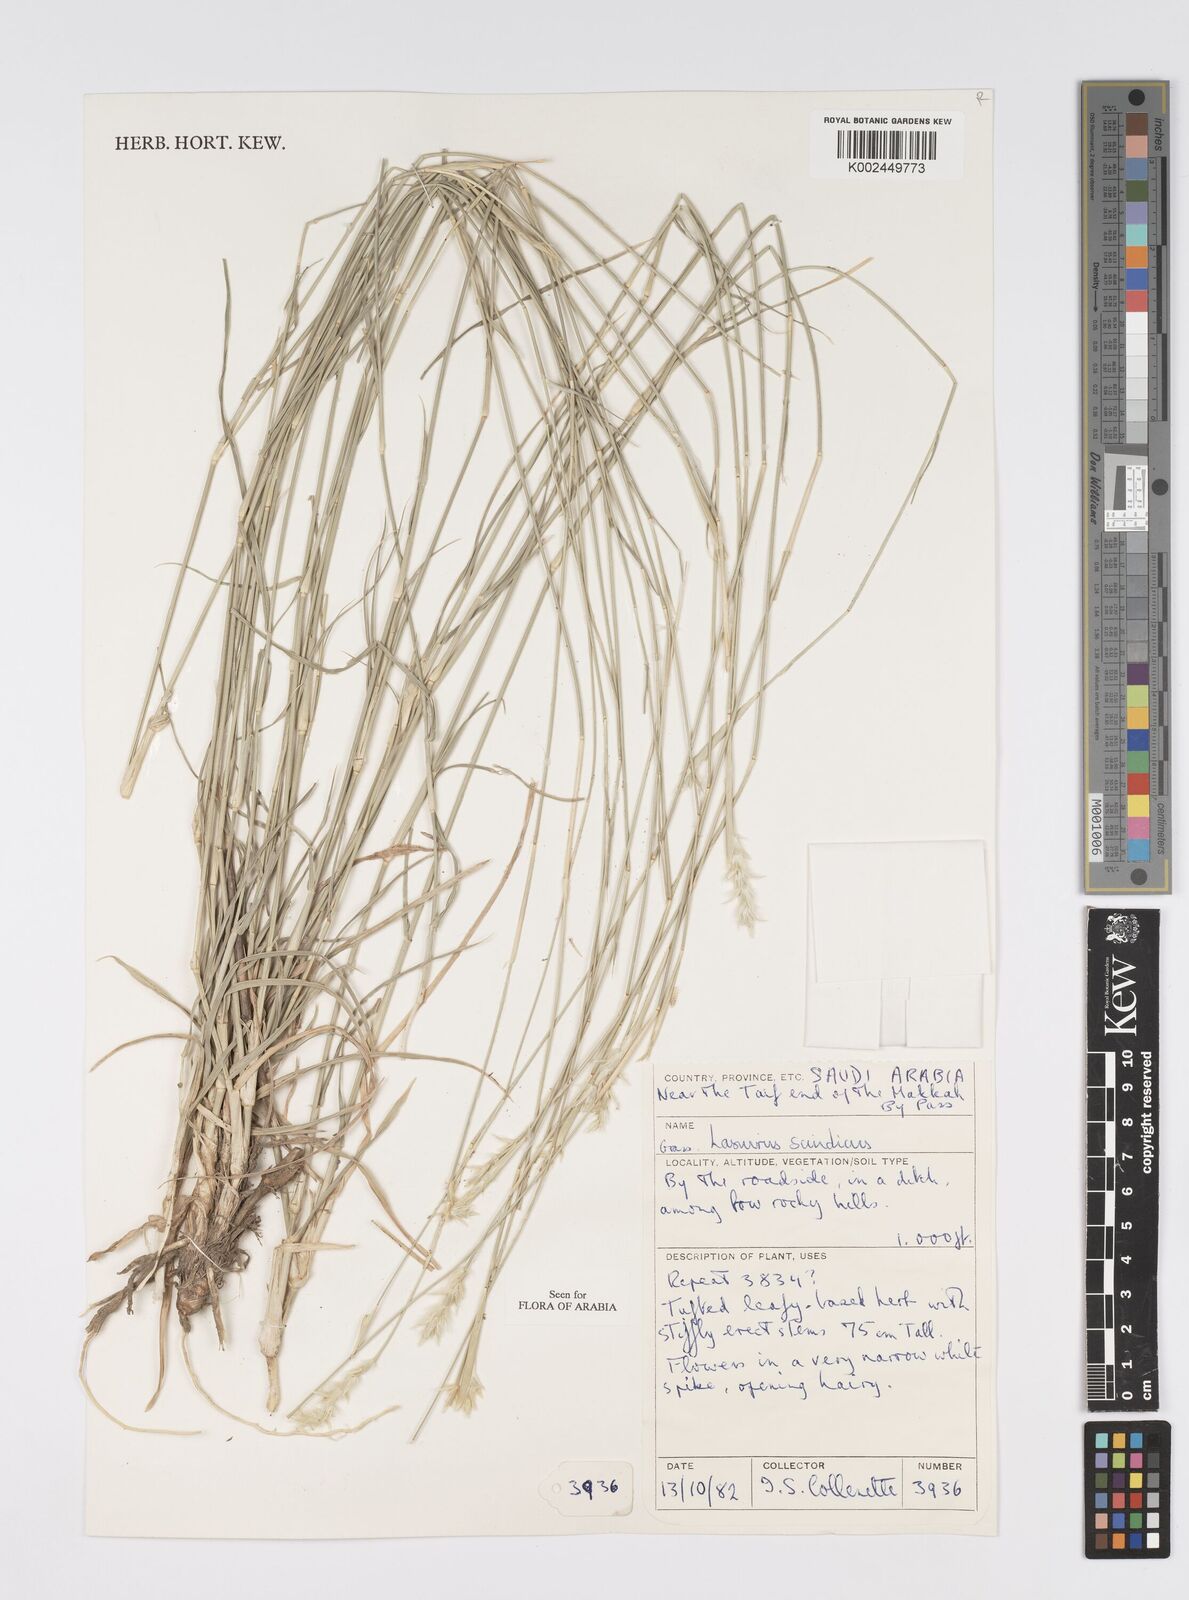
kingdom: Plantae
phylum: Tracheophyta
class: Liliopsida
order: Poales
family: Poaceae
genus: Lasiurus
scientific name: Lasiurus scindicus
